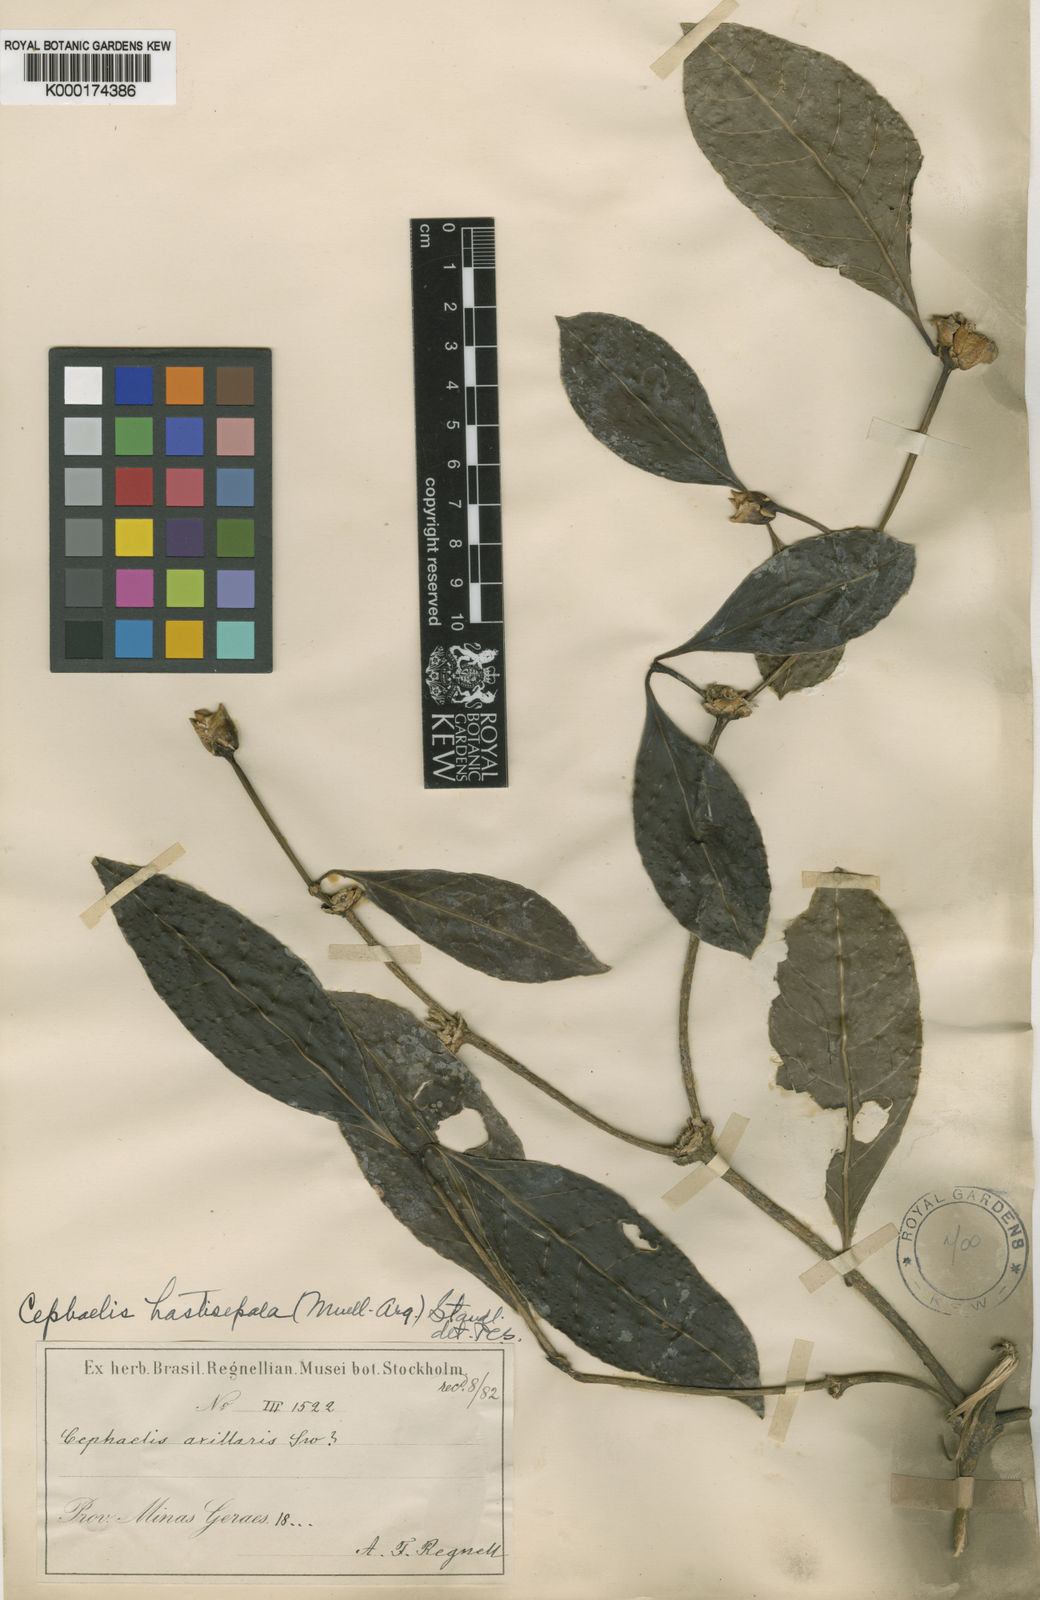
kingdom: Plantae
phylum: Tracheophyta
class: Magnoliopsida
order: Gentianales
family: Rubiaceae
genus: Psychotria
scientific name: Psychotria
